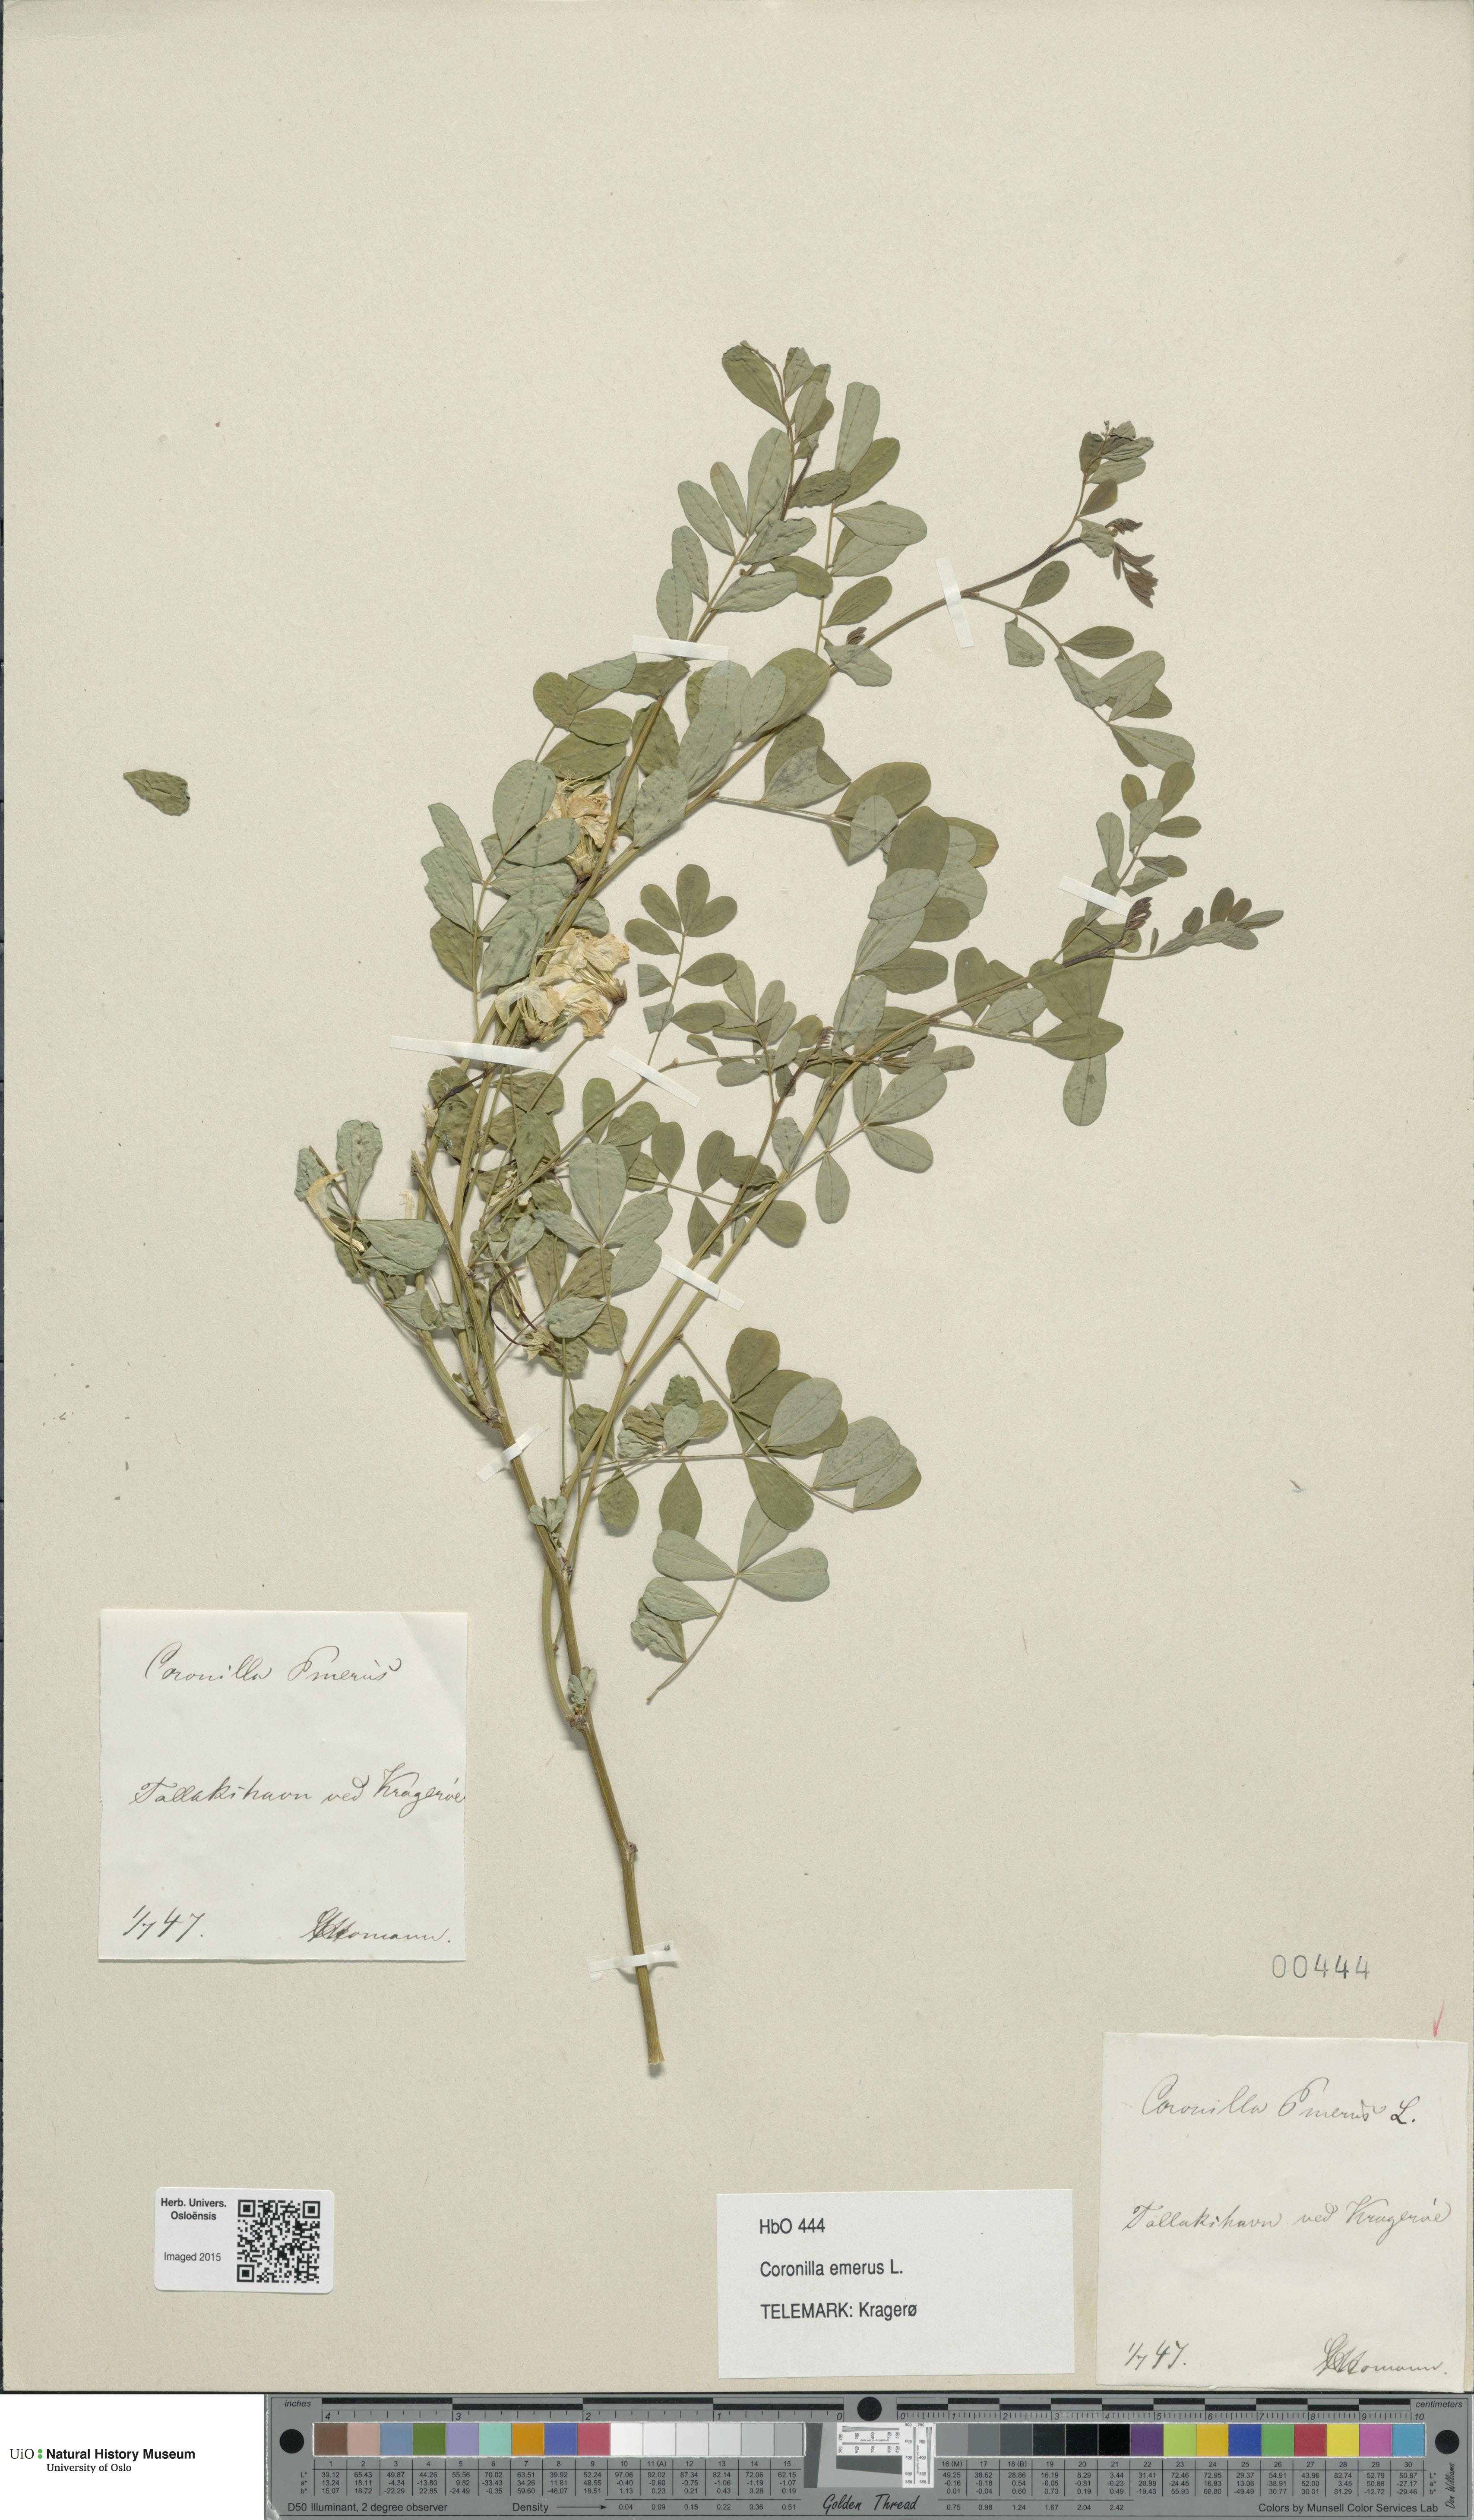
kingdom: Plantae
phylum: Tracheophyta
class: Magnoliopsida
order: Fabales
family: Fabaceae
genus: Hippocrepis
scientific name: Hippocrepis emerus
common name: Scorpion senna
